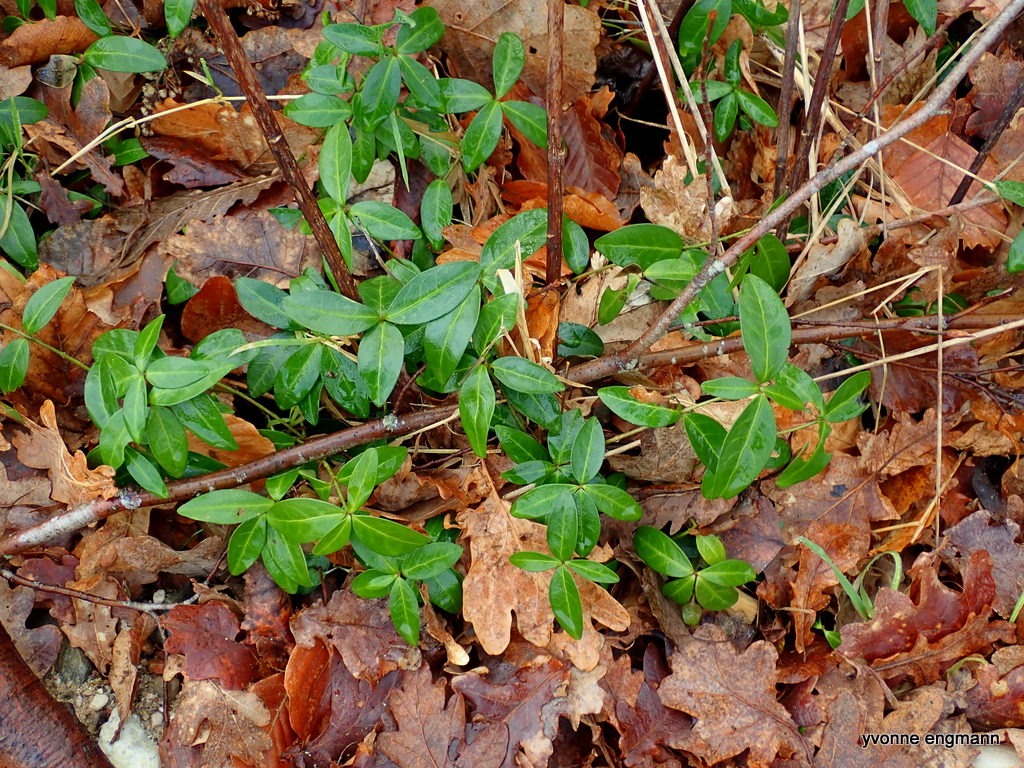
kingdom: Plantae
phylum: Tracheophyta
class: Magnoliopsida
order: Gentianales
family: Apocynaceae
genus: Vinca
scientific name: Vinca minor
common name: Liden singrøn
